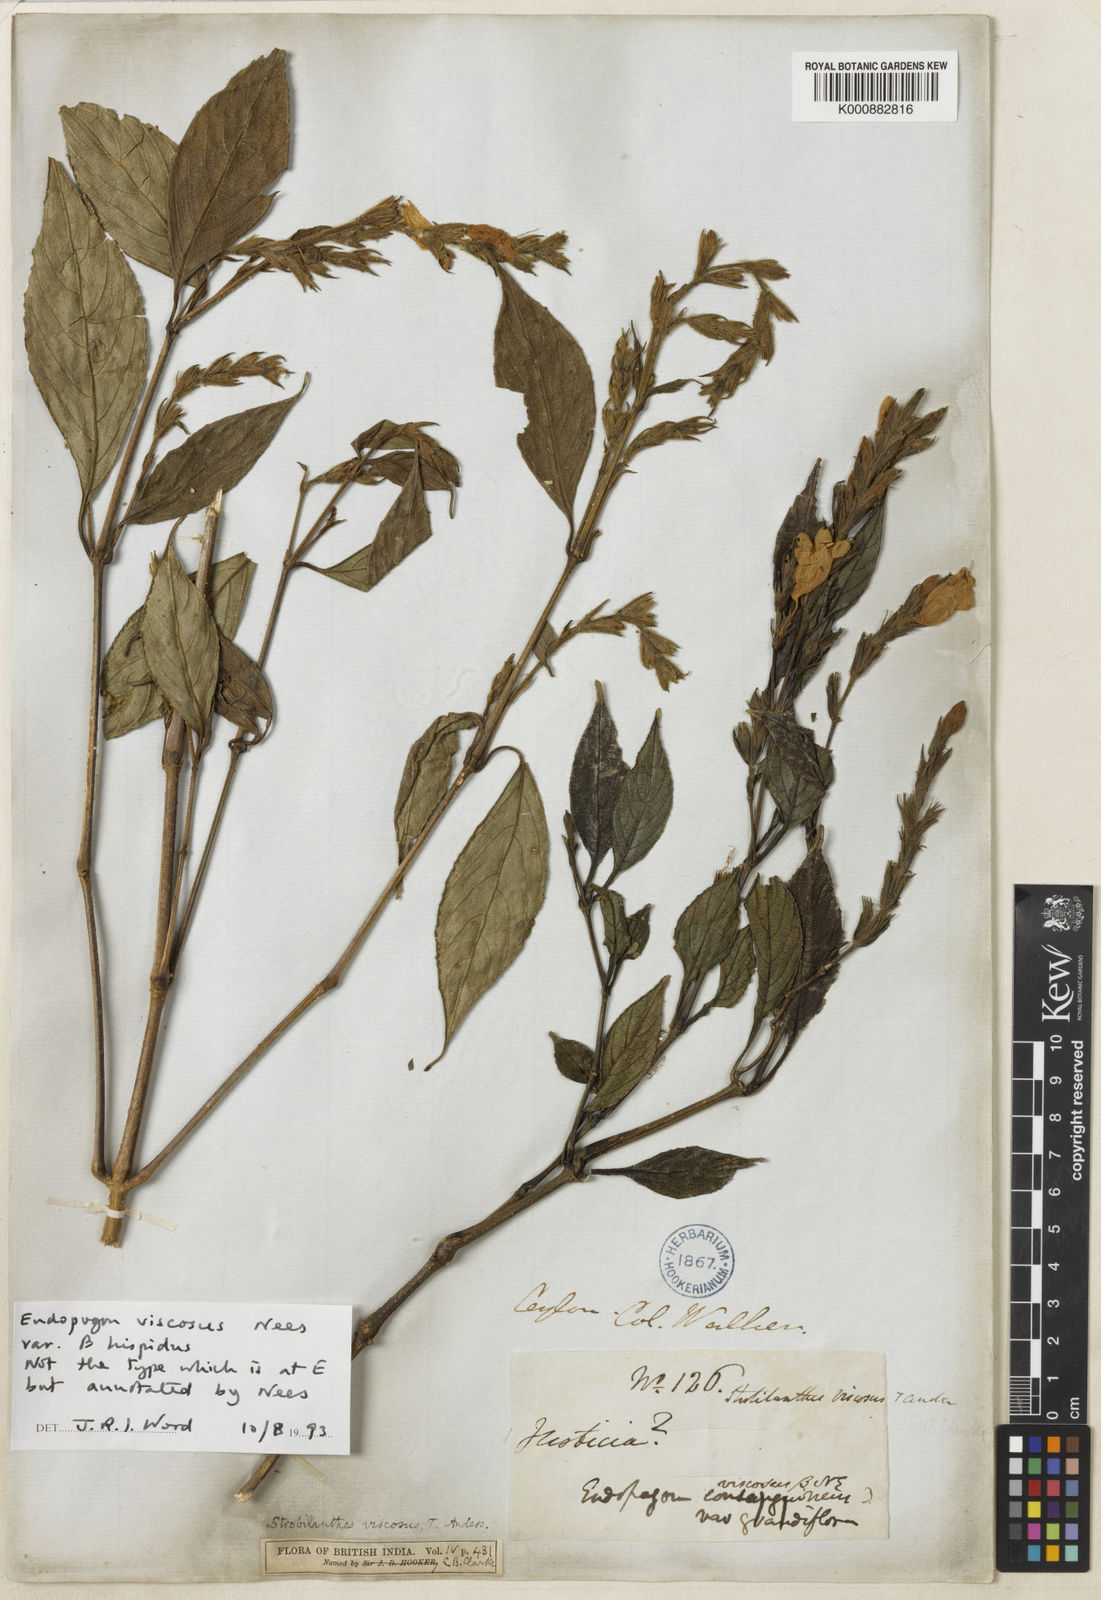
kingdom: Plantae
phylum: Tracheophyta
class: Magnoliopsida
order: Lamiales
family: Acanthaceae
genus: Strobilanthes
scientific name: Strobilanthes viscosa
